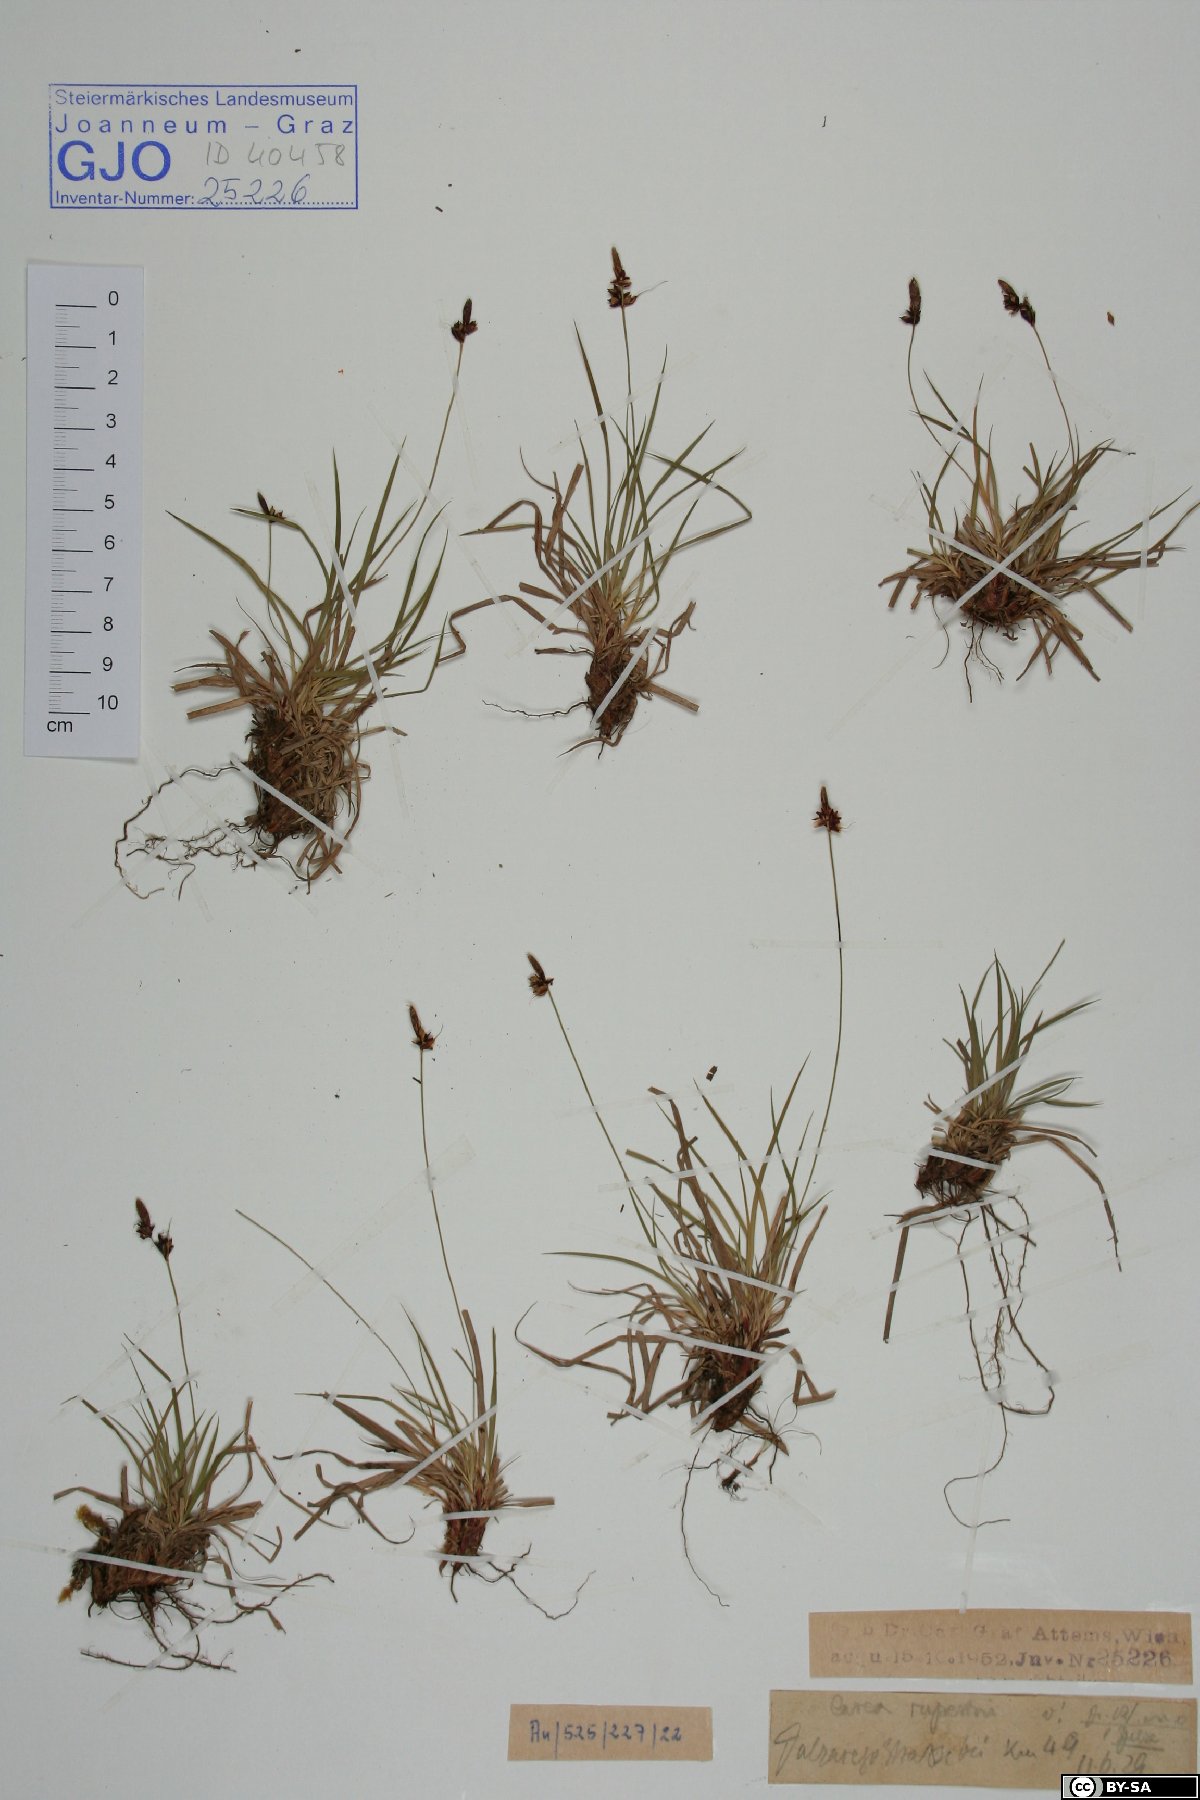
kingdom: Plantae
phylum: Tracheophyta
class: Liliopsida
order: Poales
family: Cyperaceae
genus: Carex
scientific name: Carex rupestris
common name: Rock sedge
